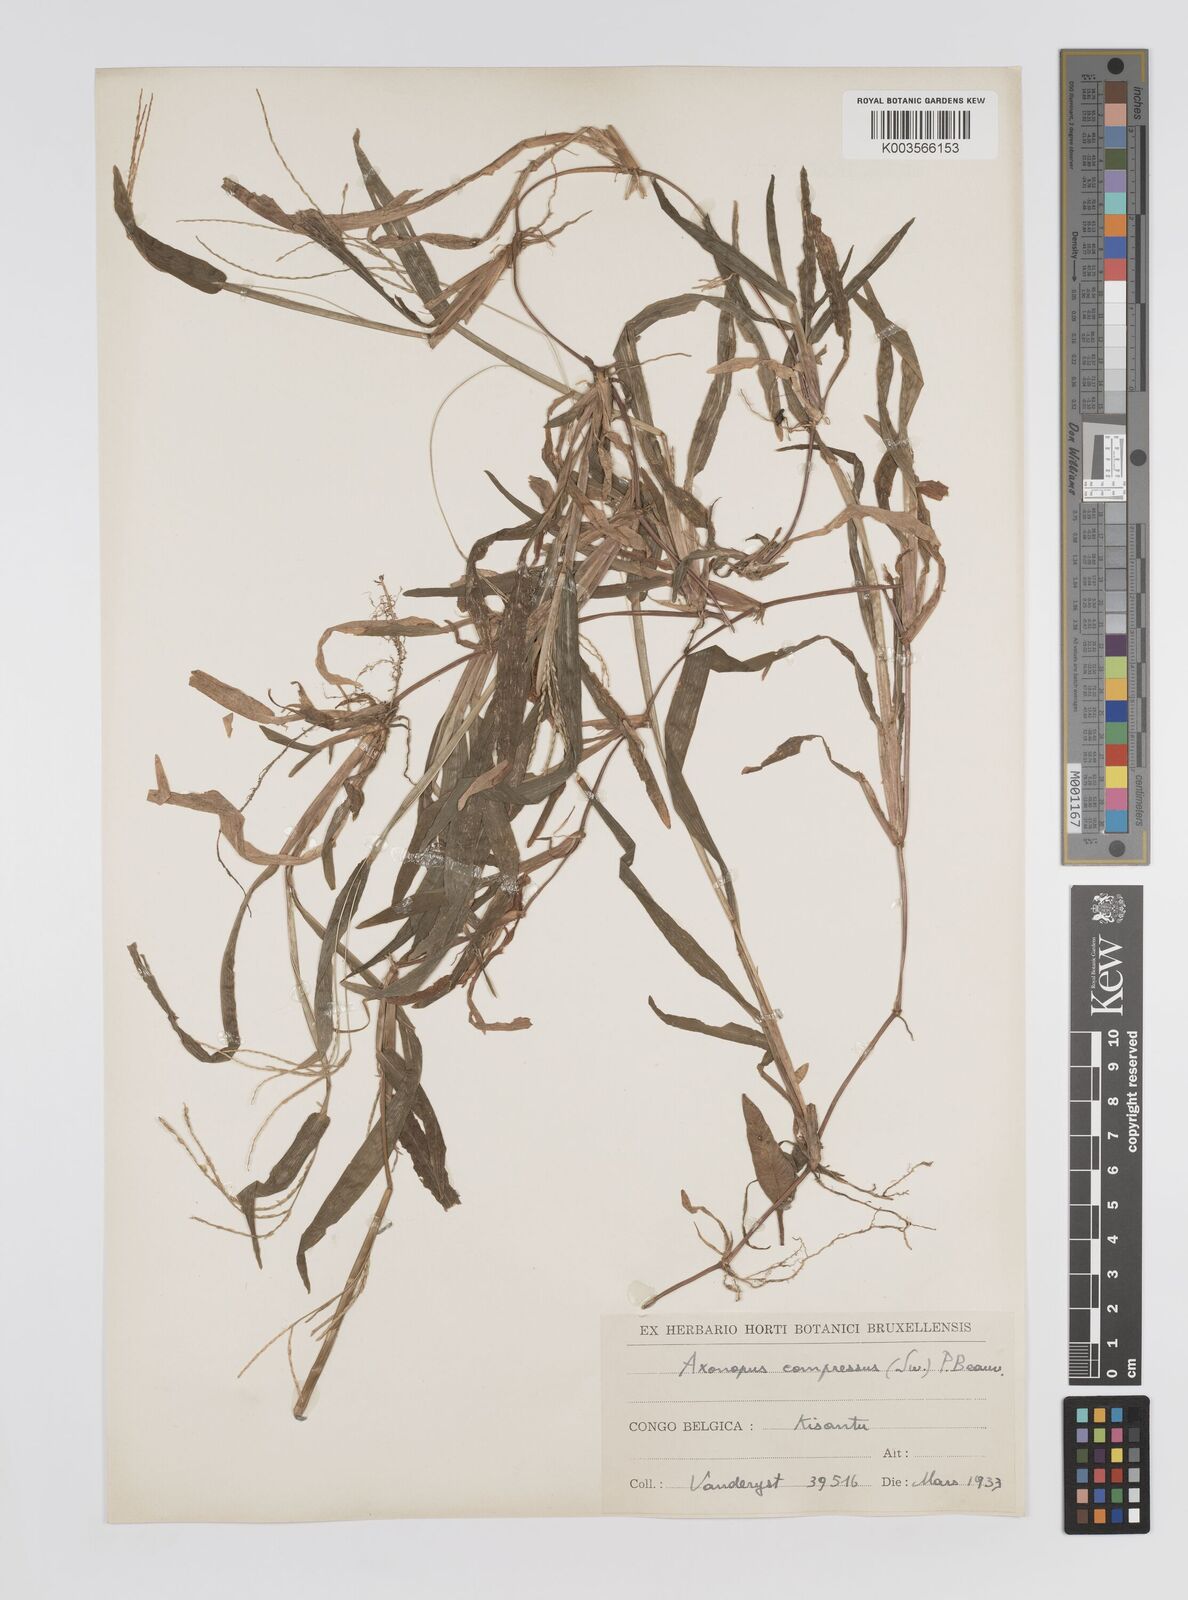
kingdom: Plantae
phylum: Tracheophyta
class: Liliopsida
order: Poales
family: Poaceae
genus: Axonopus
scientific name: Axonopus compressus
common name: American carpet grass
